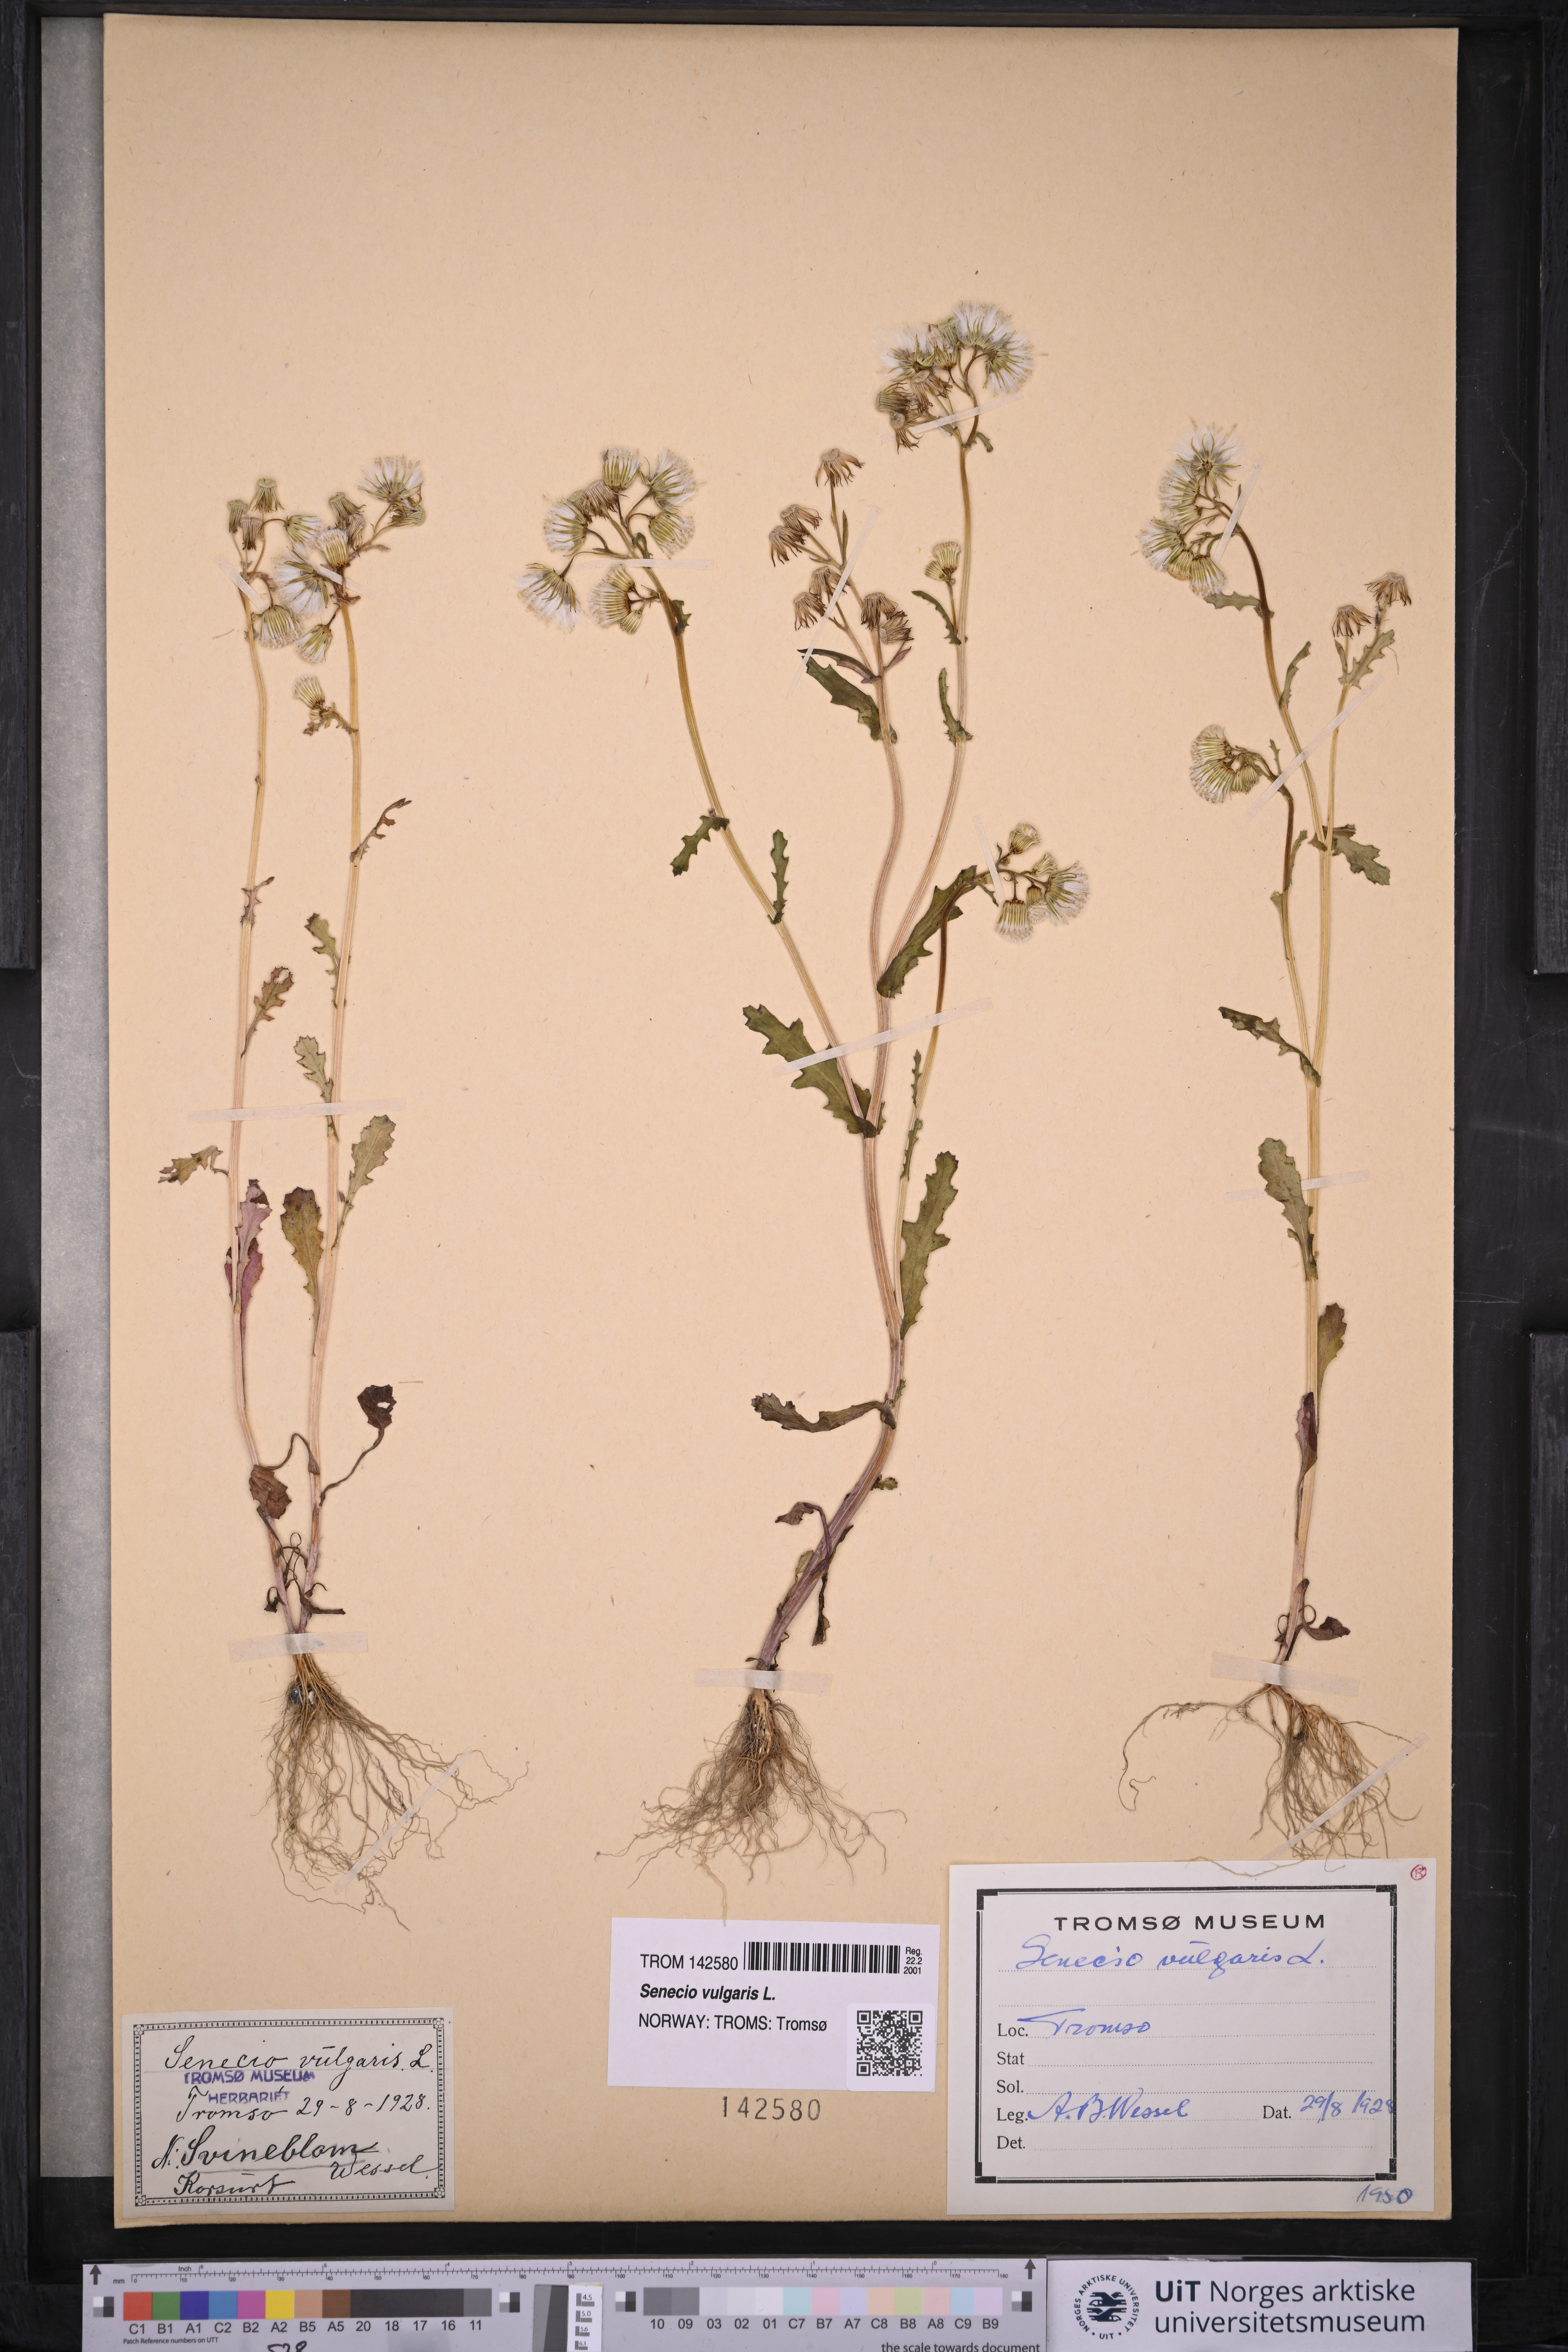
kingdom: Plantae
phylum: Tracheophyta
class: Magnoliopsida
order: Asterales
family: Asteraceae
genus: Senecio
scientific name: Senecio vulgaris
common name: Old-man-in-the-spring
